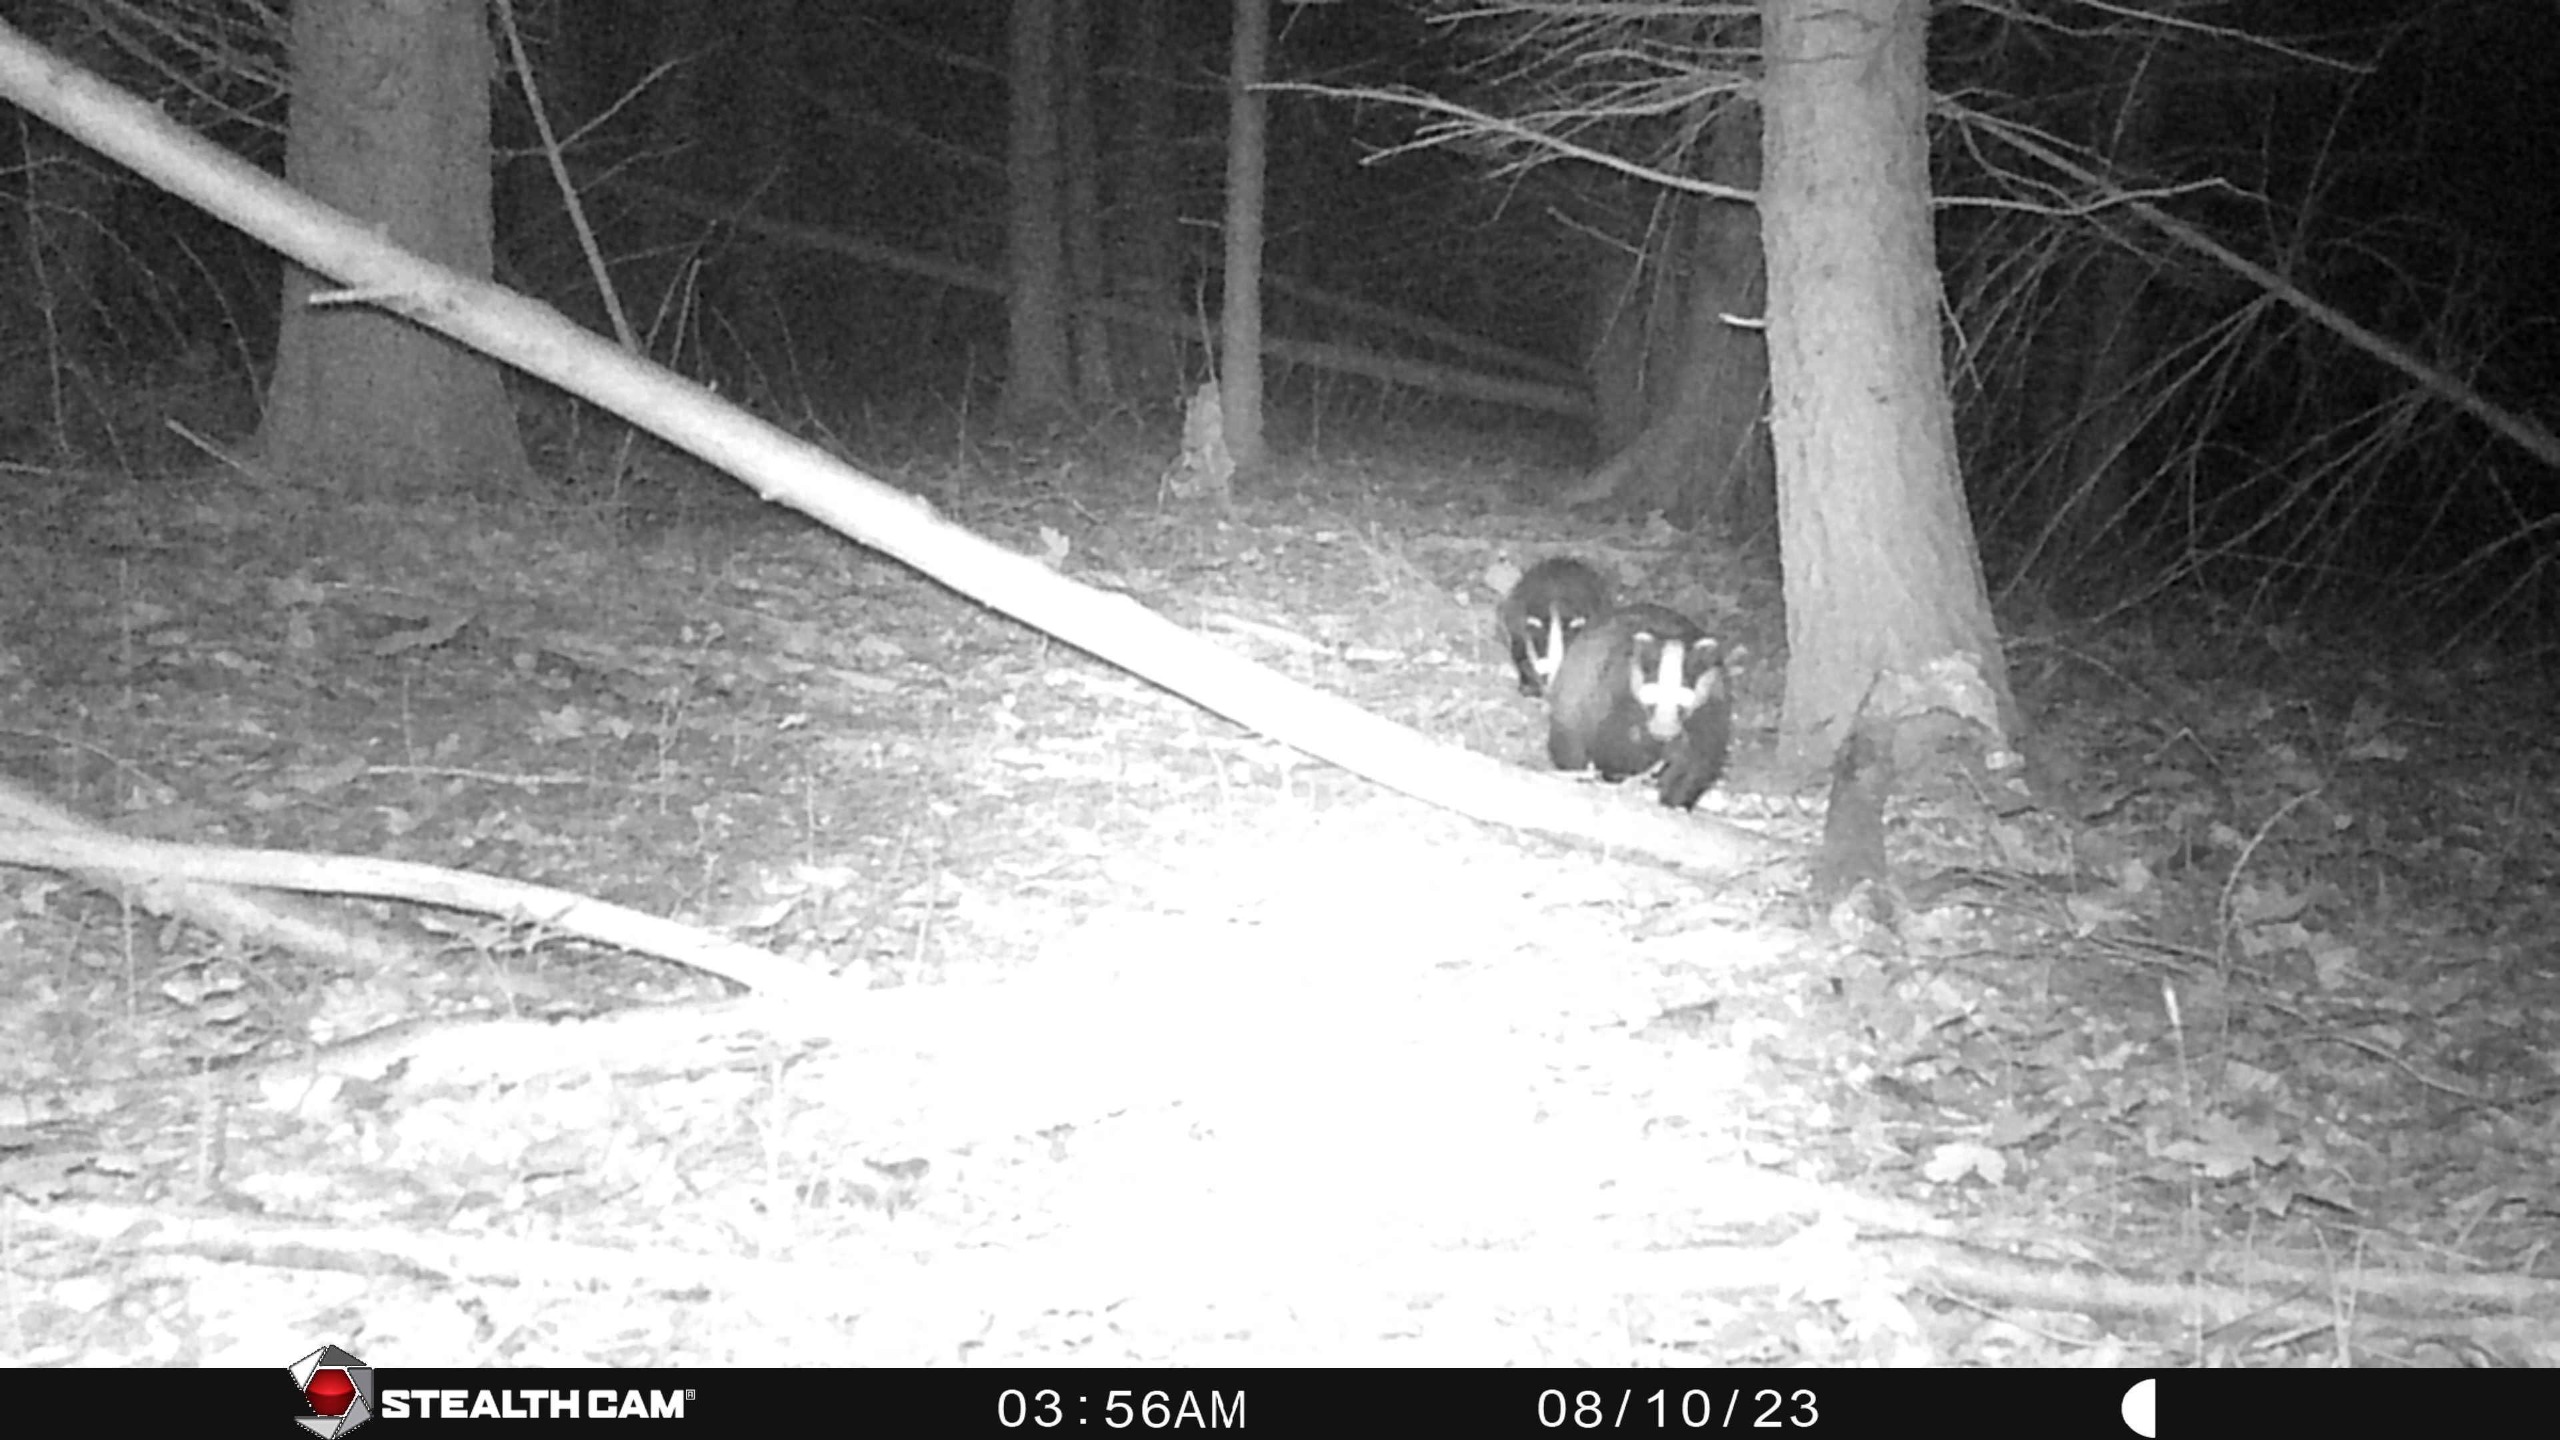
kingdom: Animalia
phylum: Chordata
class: Mammalia
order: Carnivora
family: Mustelidae
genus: Meles
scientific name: Meles meles
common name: Grævling
